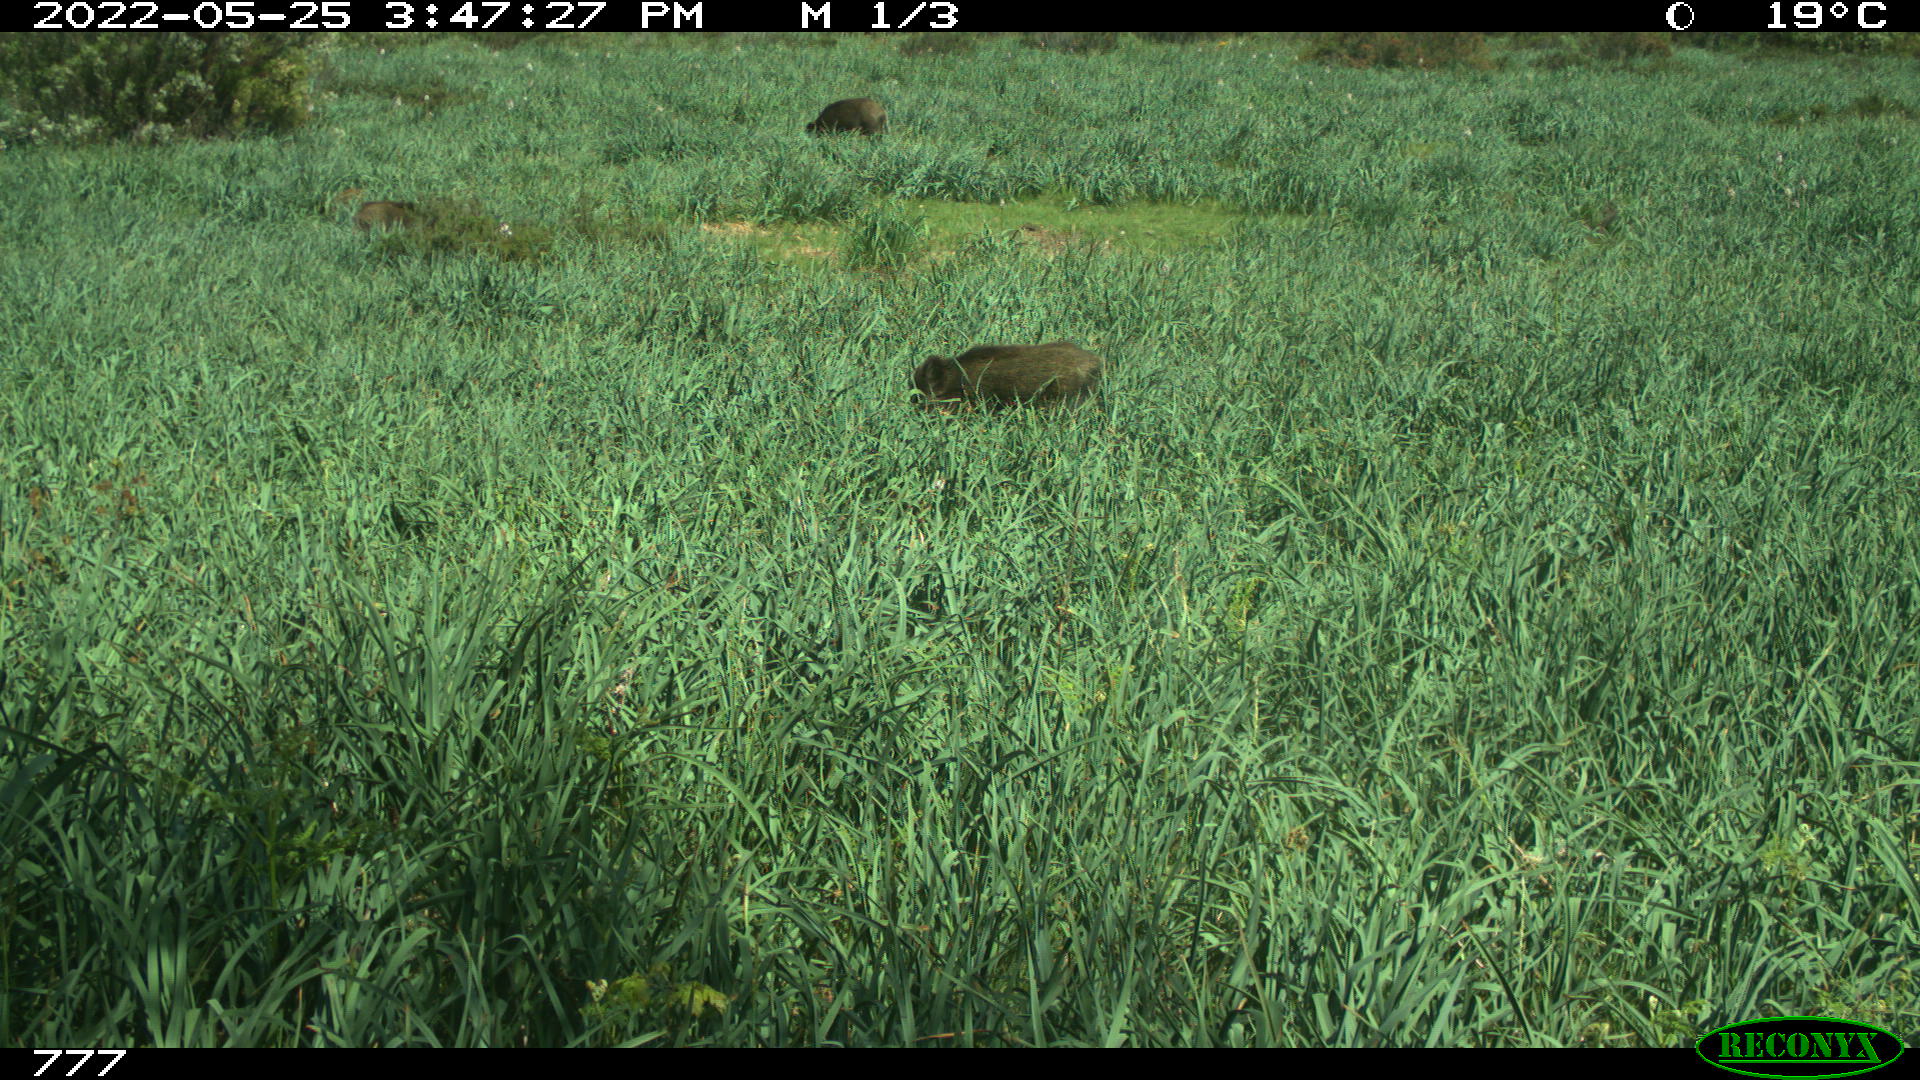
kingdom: Animalia
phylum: Chordata
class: Mammalia
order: Artiodactyla
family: Suidae
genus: Sus
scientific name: Sus scrofa
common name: Wild boar
